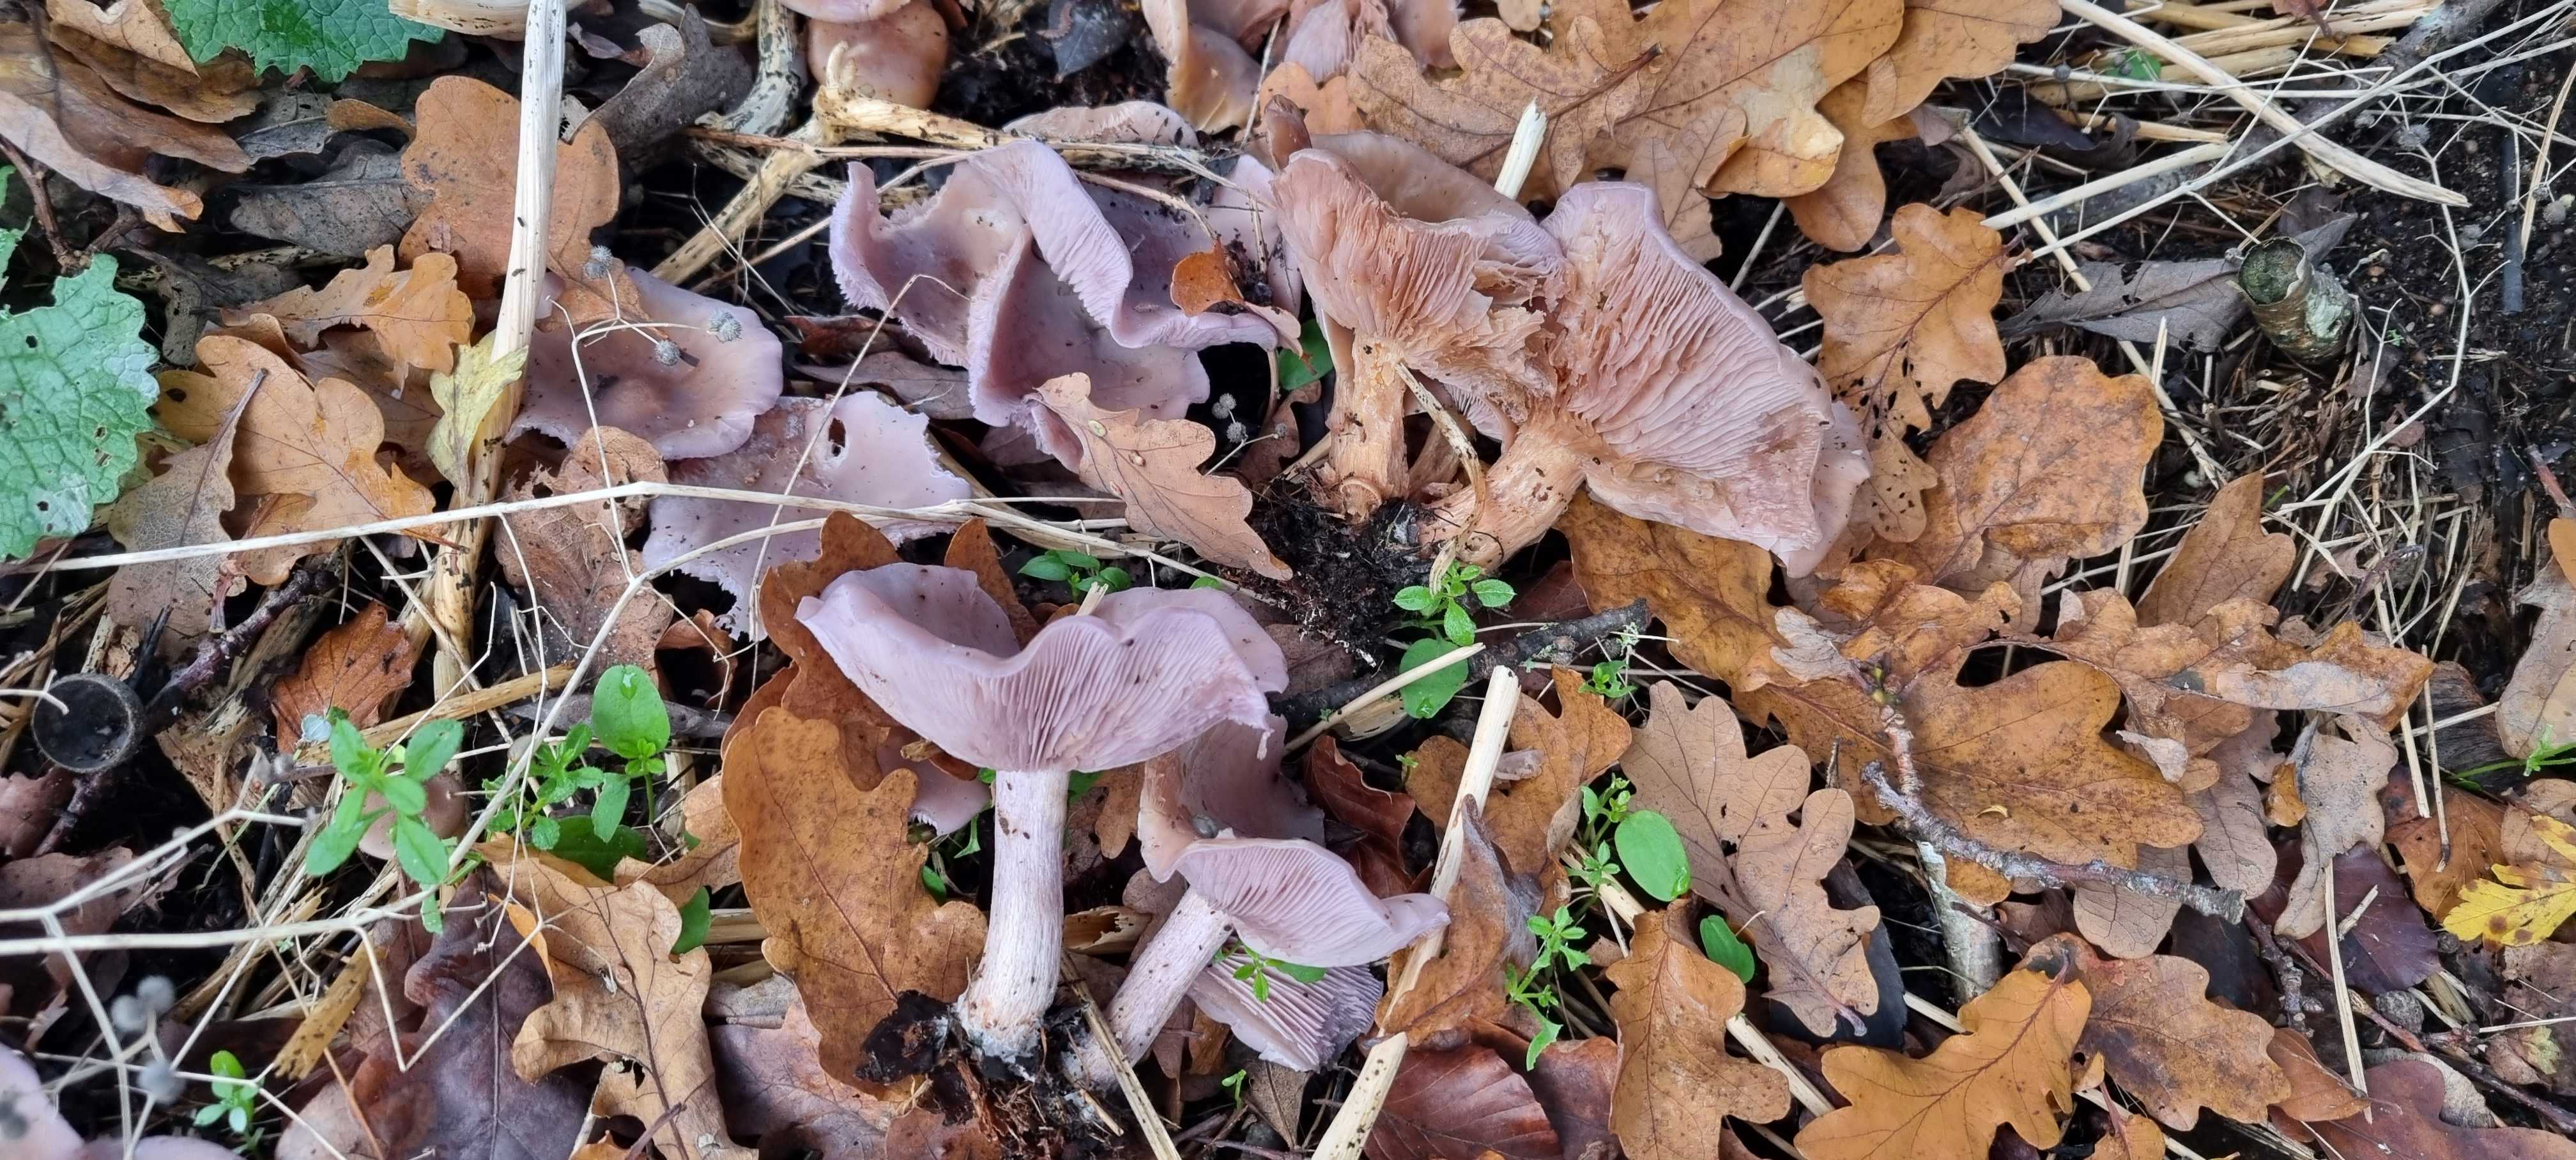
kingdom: Fungi
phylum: Basidiomycota
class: Agaricomycetes
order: Agaricales
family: Tricholomataceae
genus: Lepista
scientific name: Lepista nuda
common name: violet hekseringshat
